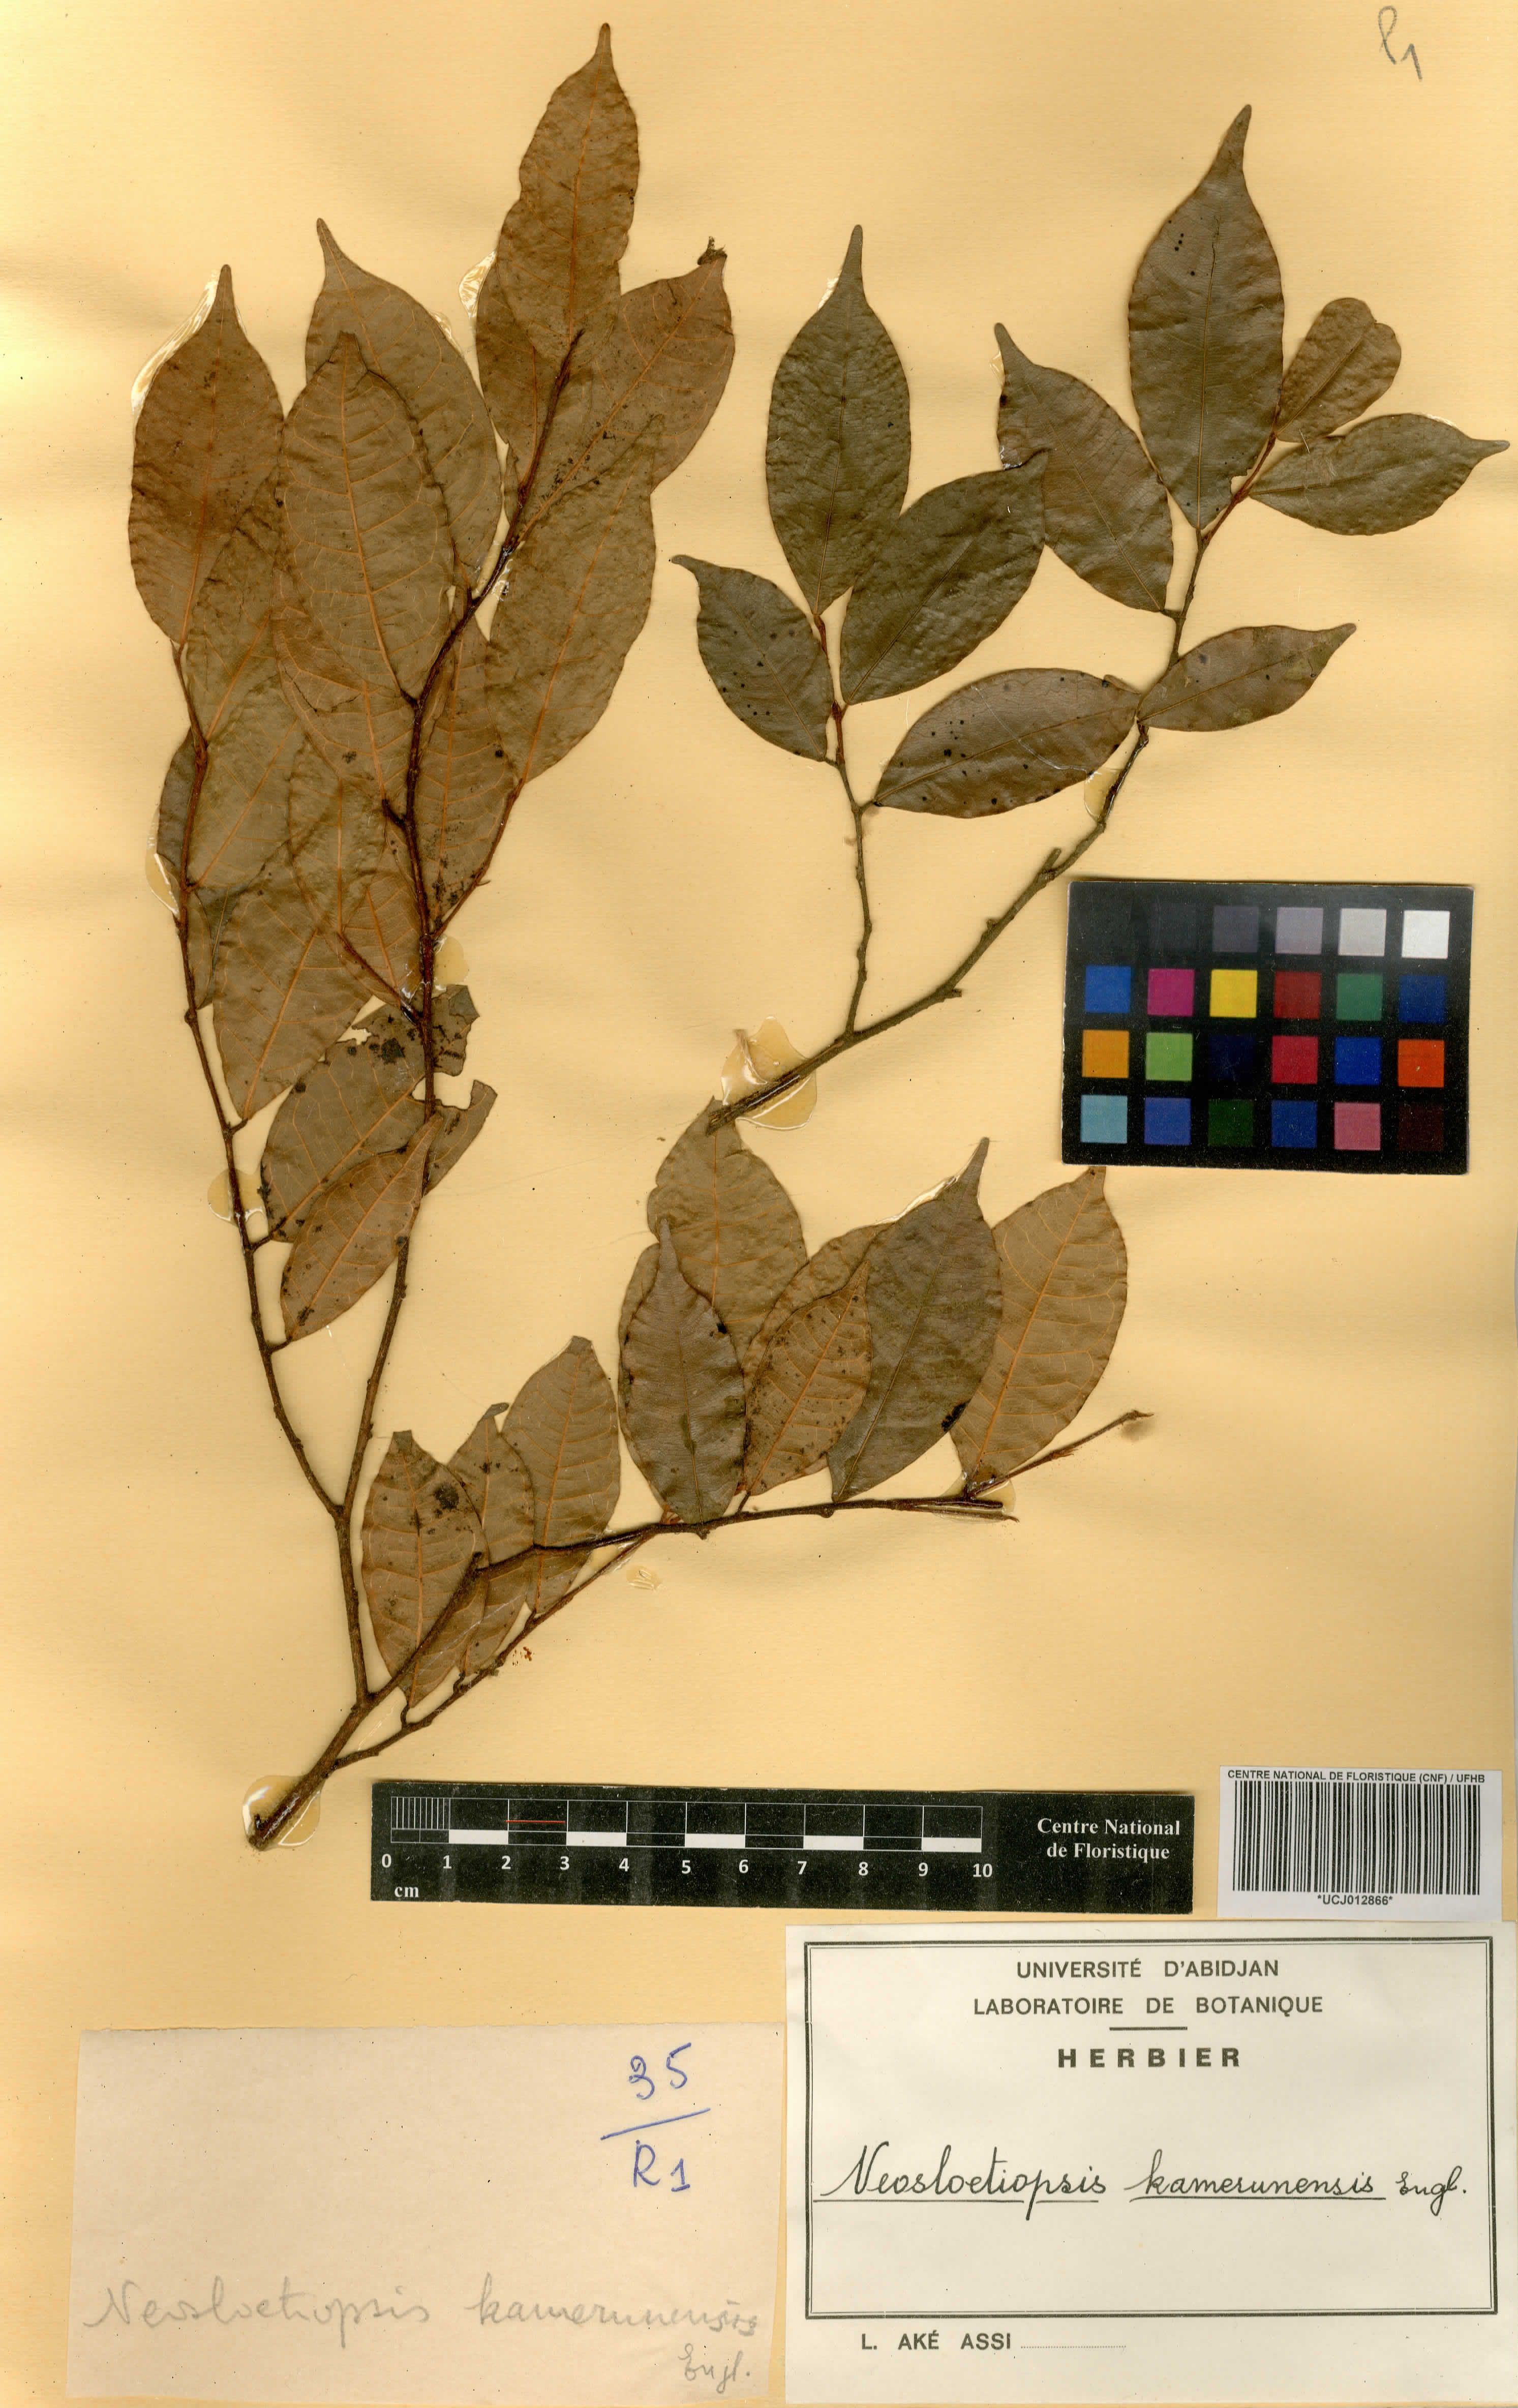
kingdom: Plantae
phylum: Tracheophyta
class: Magnoliopsida
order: Rosales
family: Moraceae
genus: Sloetiopsis
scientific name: Sloetiopsis usambarensis
